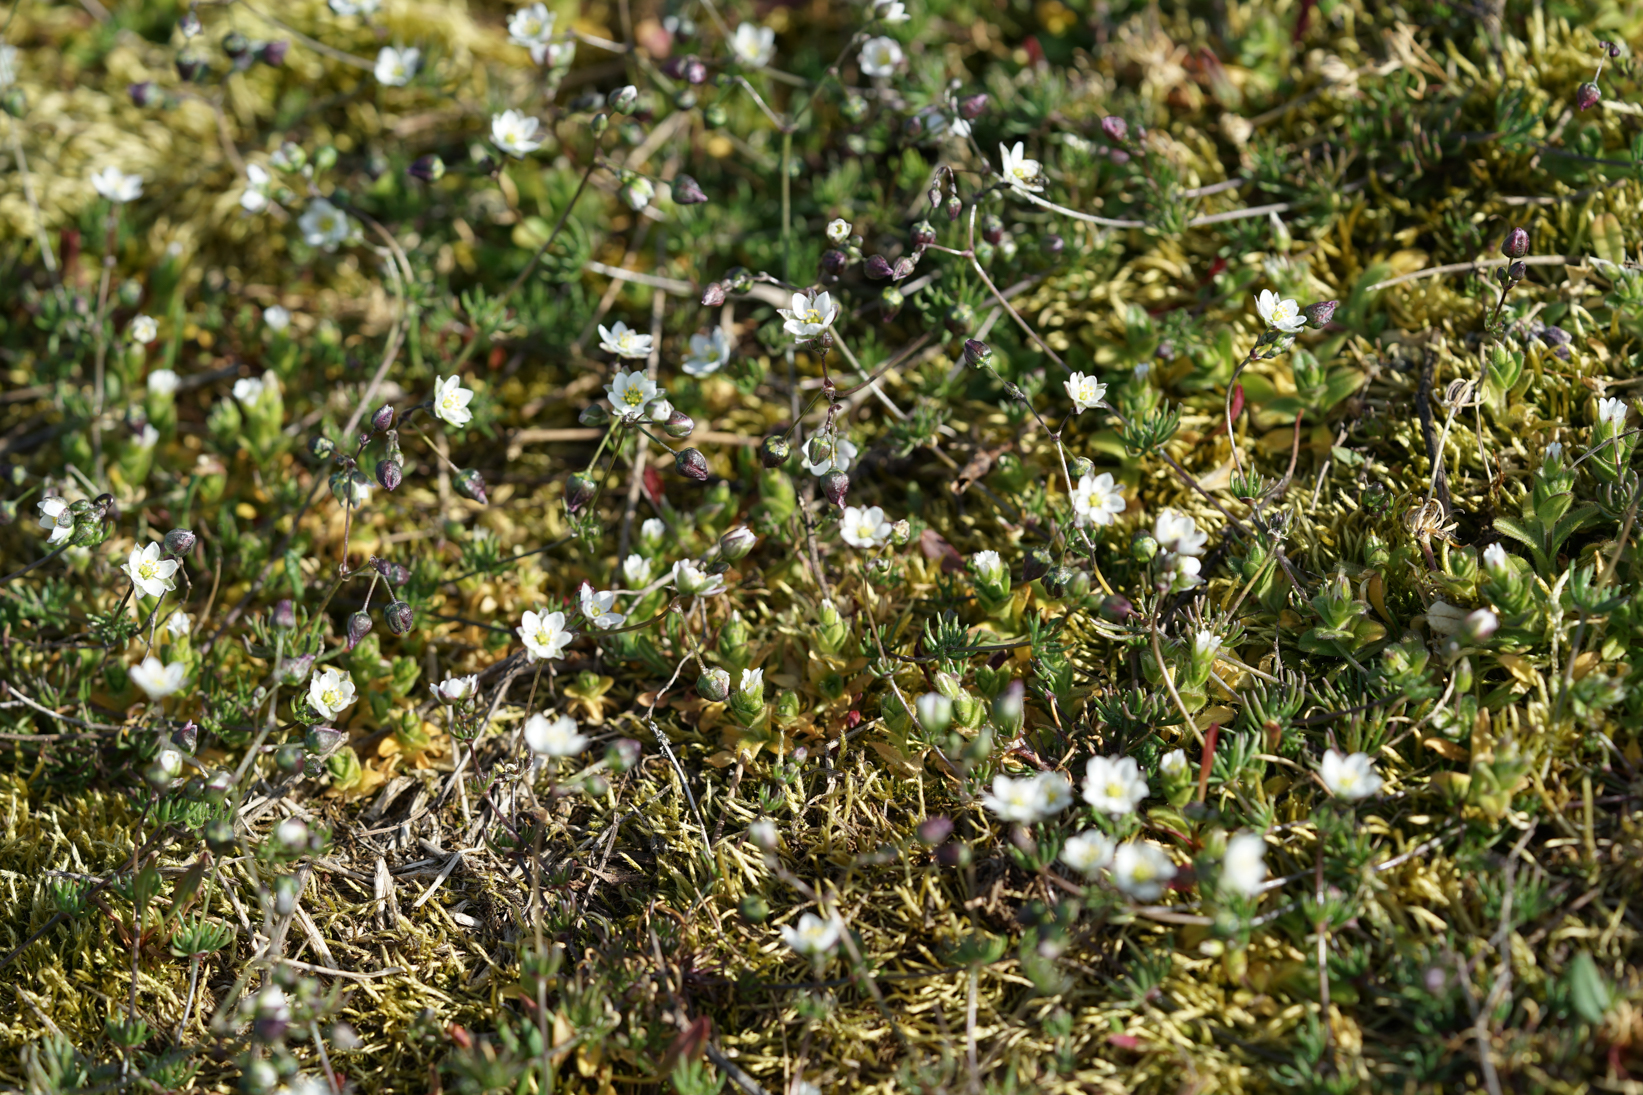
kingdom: Plantae
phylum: Tracheophyta
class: Magnoliopsida
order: Caryophyllales
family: Caryophyllaceae
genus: Spergula
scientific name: Spergula arvensis
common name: Corn spurrey
